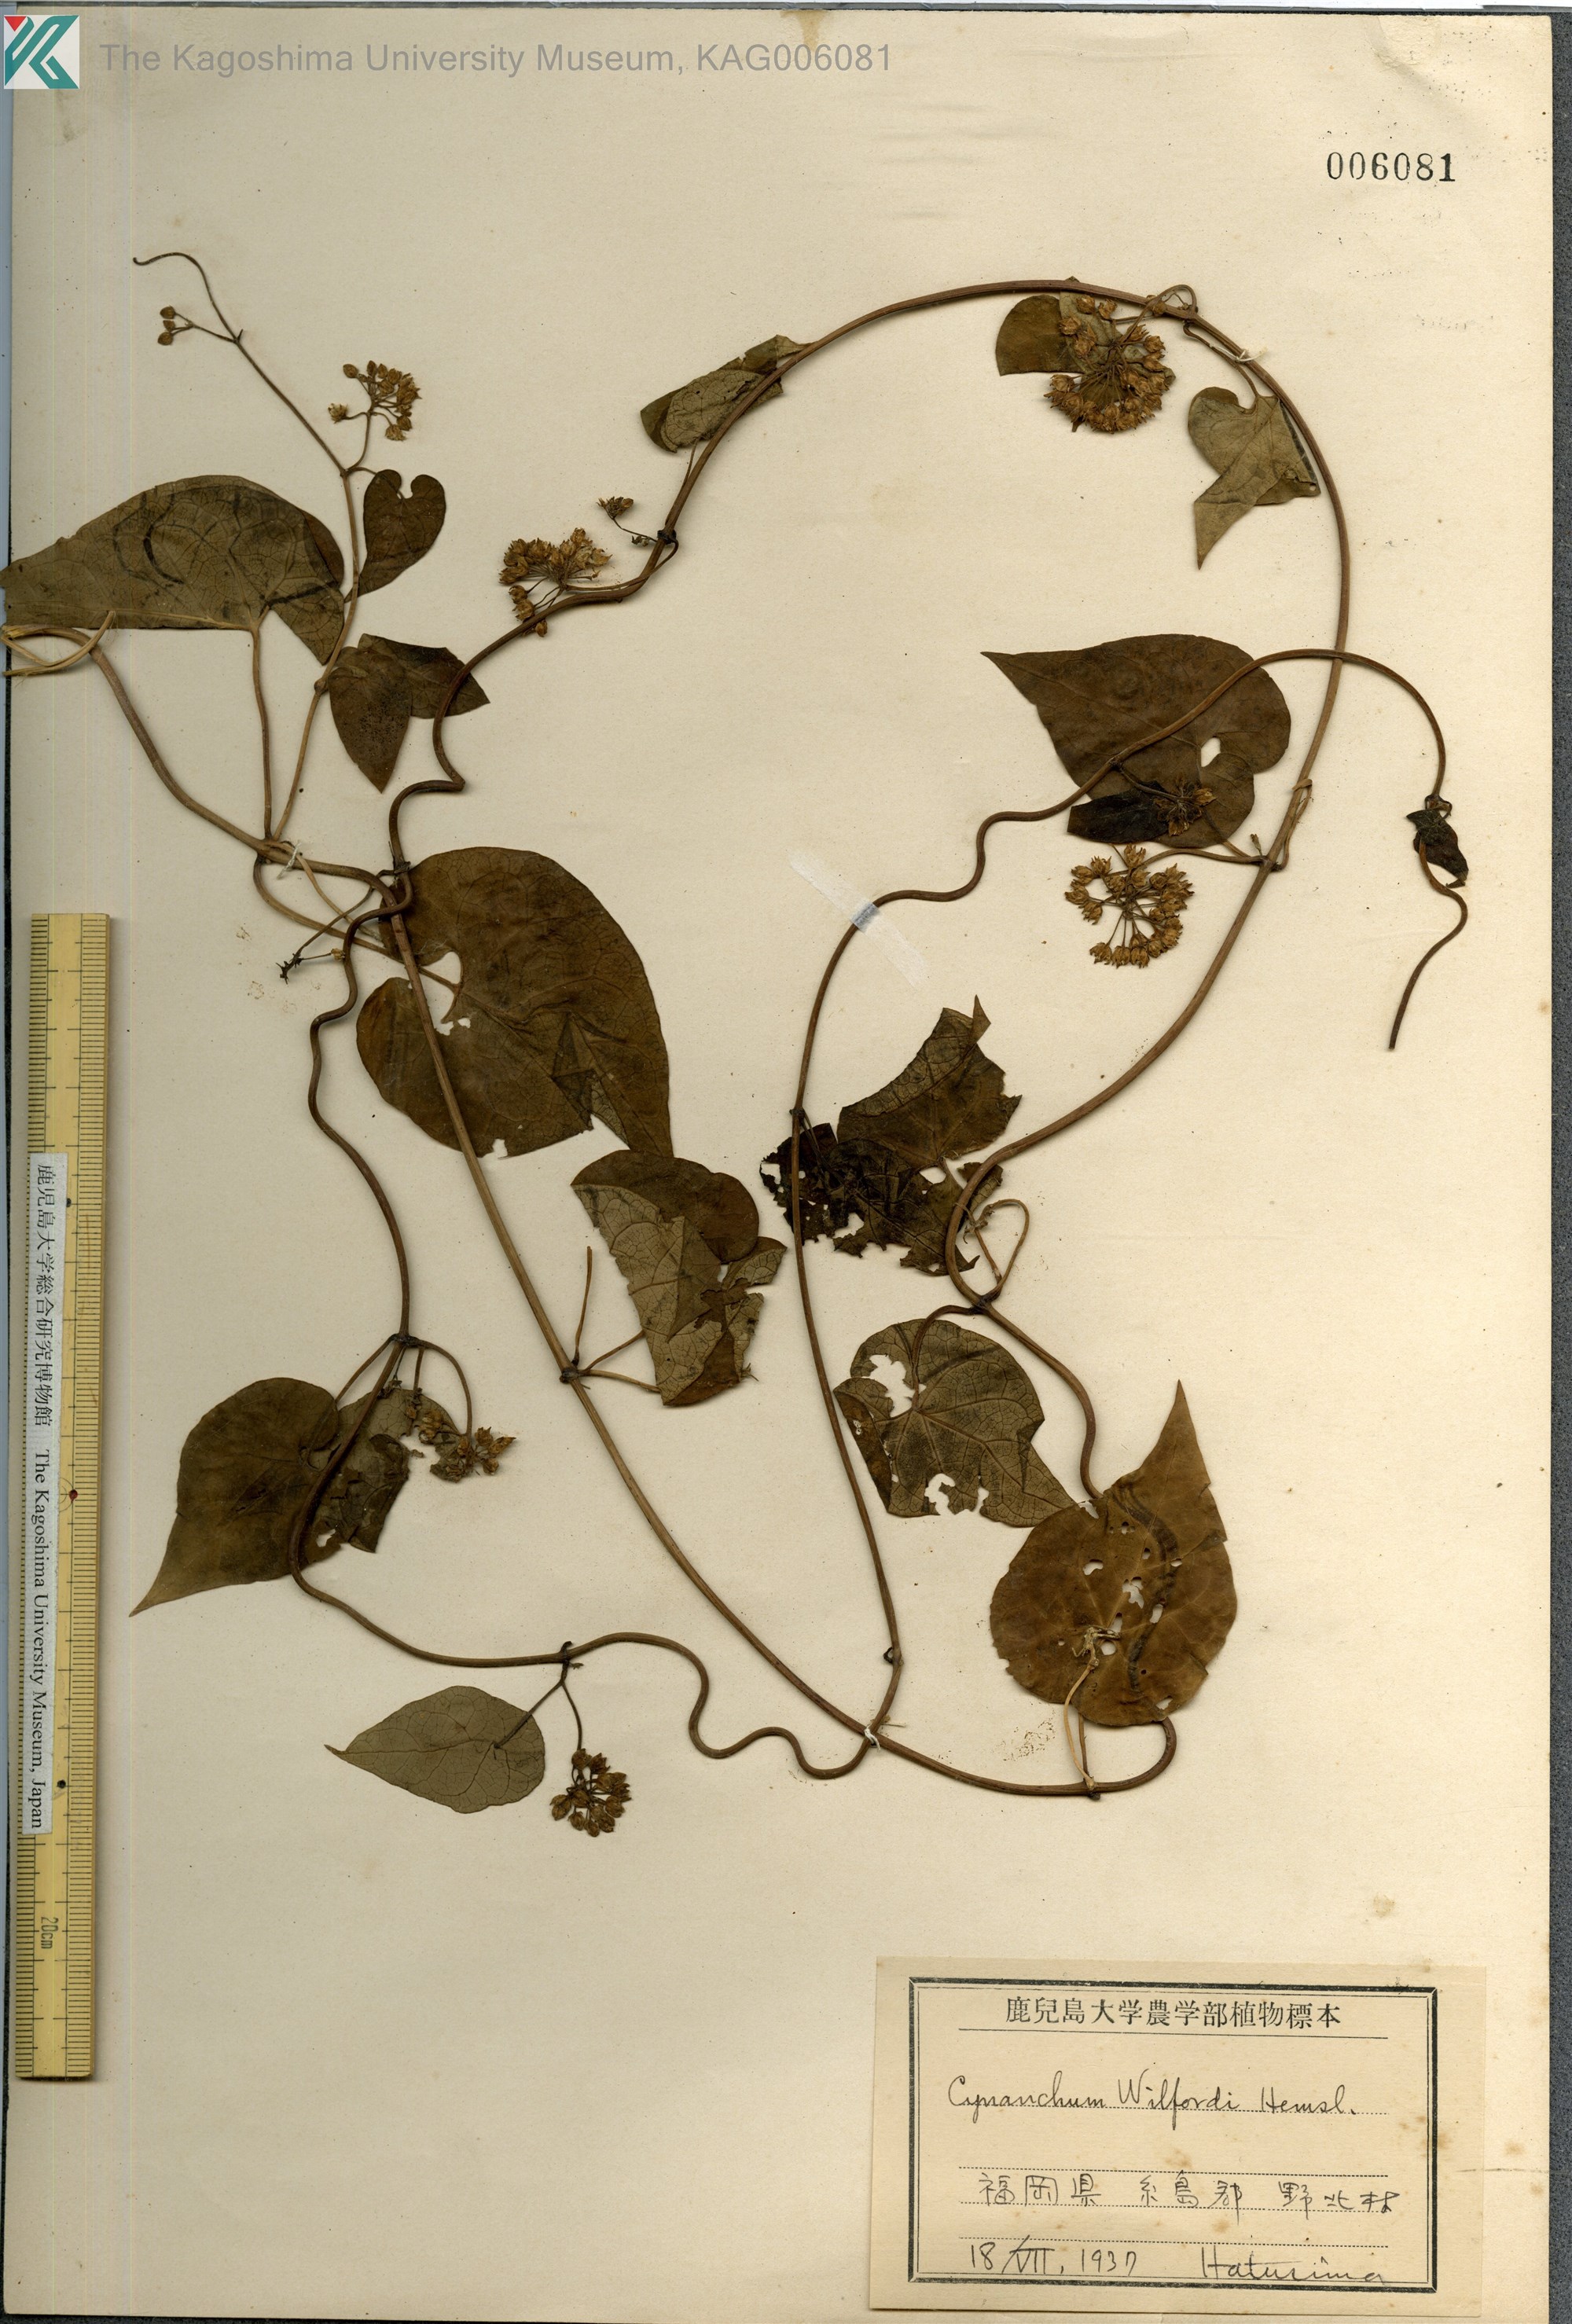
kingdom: Plantae
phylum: Tracheophyta
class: Magnoliopsida
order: Gentianales
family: Apocynaceae
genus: Cynanchum
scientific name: Cynanchum wilfordii
